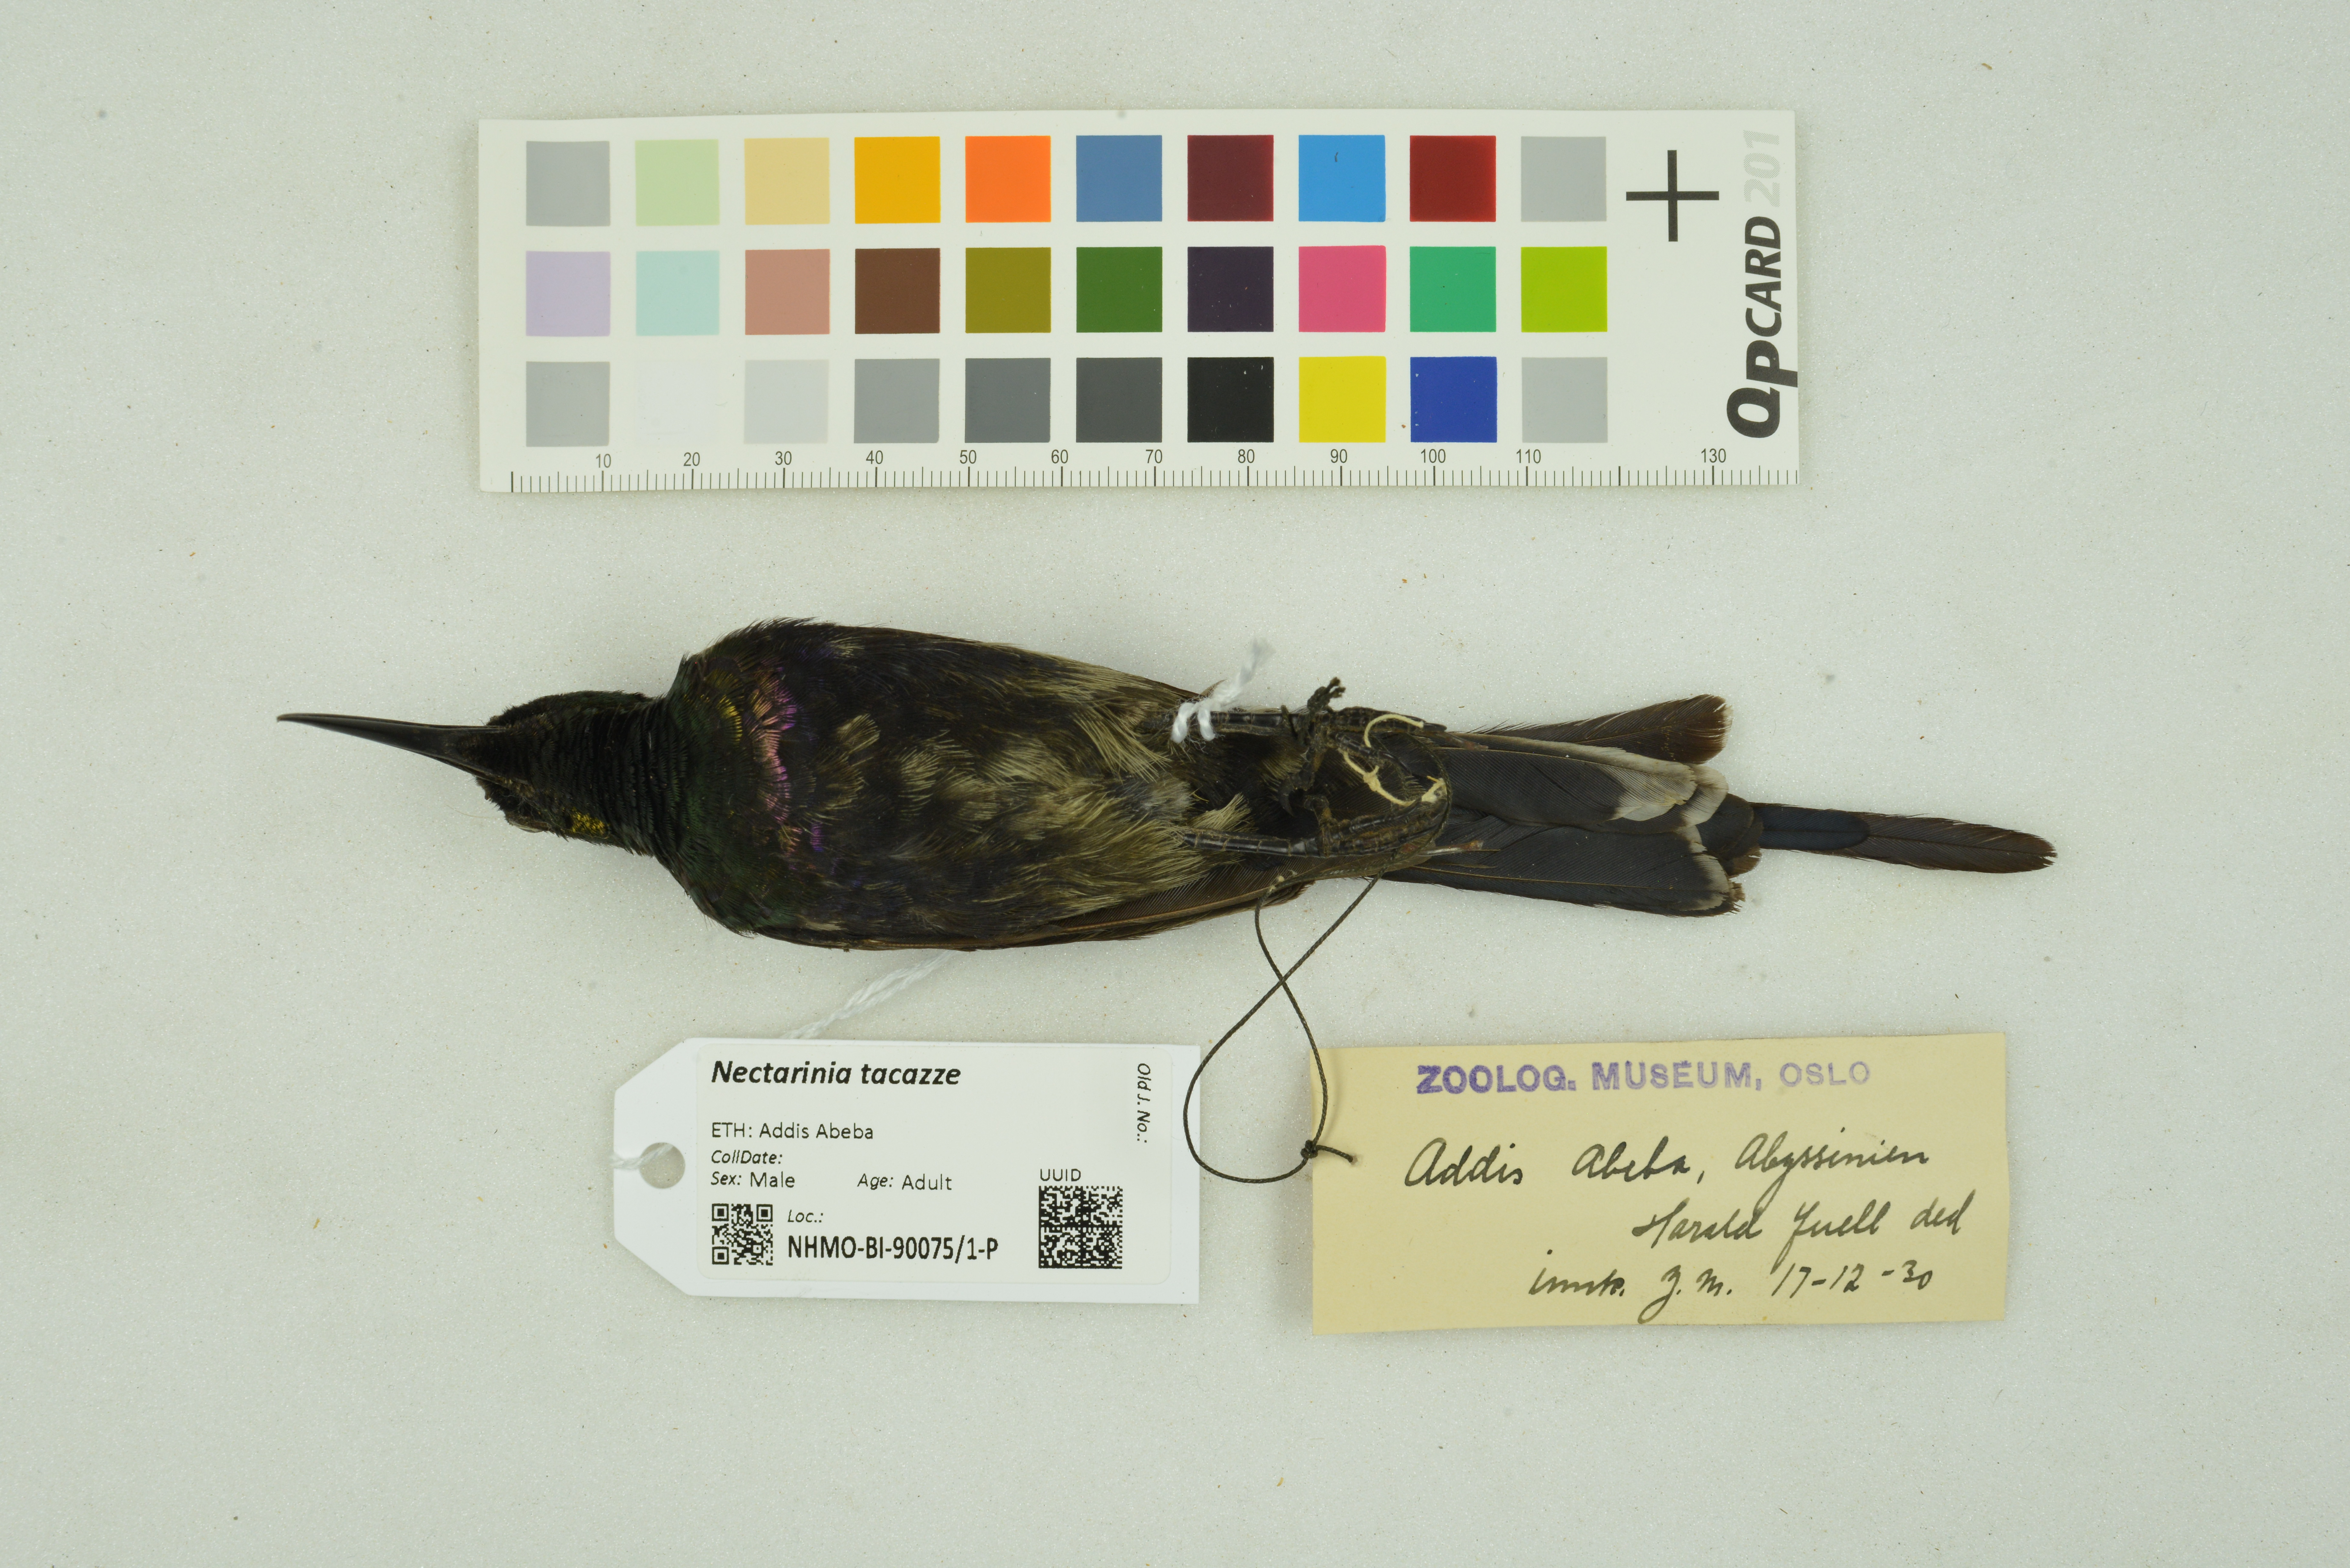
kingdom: Animalia
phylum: Chordata
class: Aves
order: Passeriformes
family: Nectariniidae
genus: Nectarinia
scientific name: Nectarinia tacazze
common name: Tacazze sunbird
